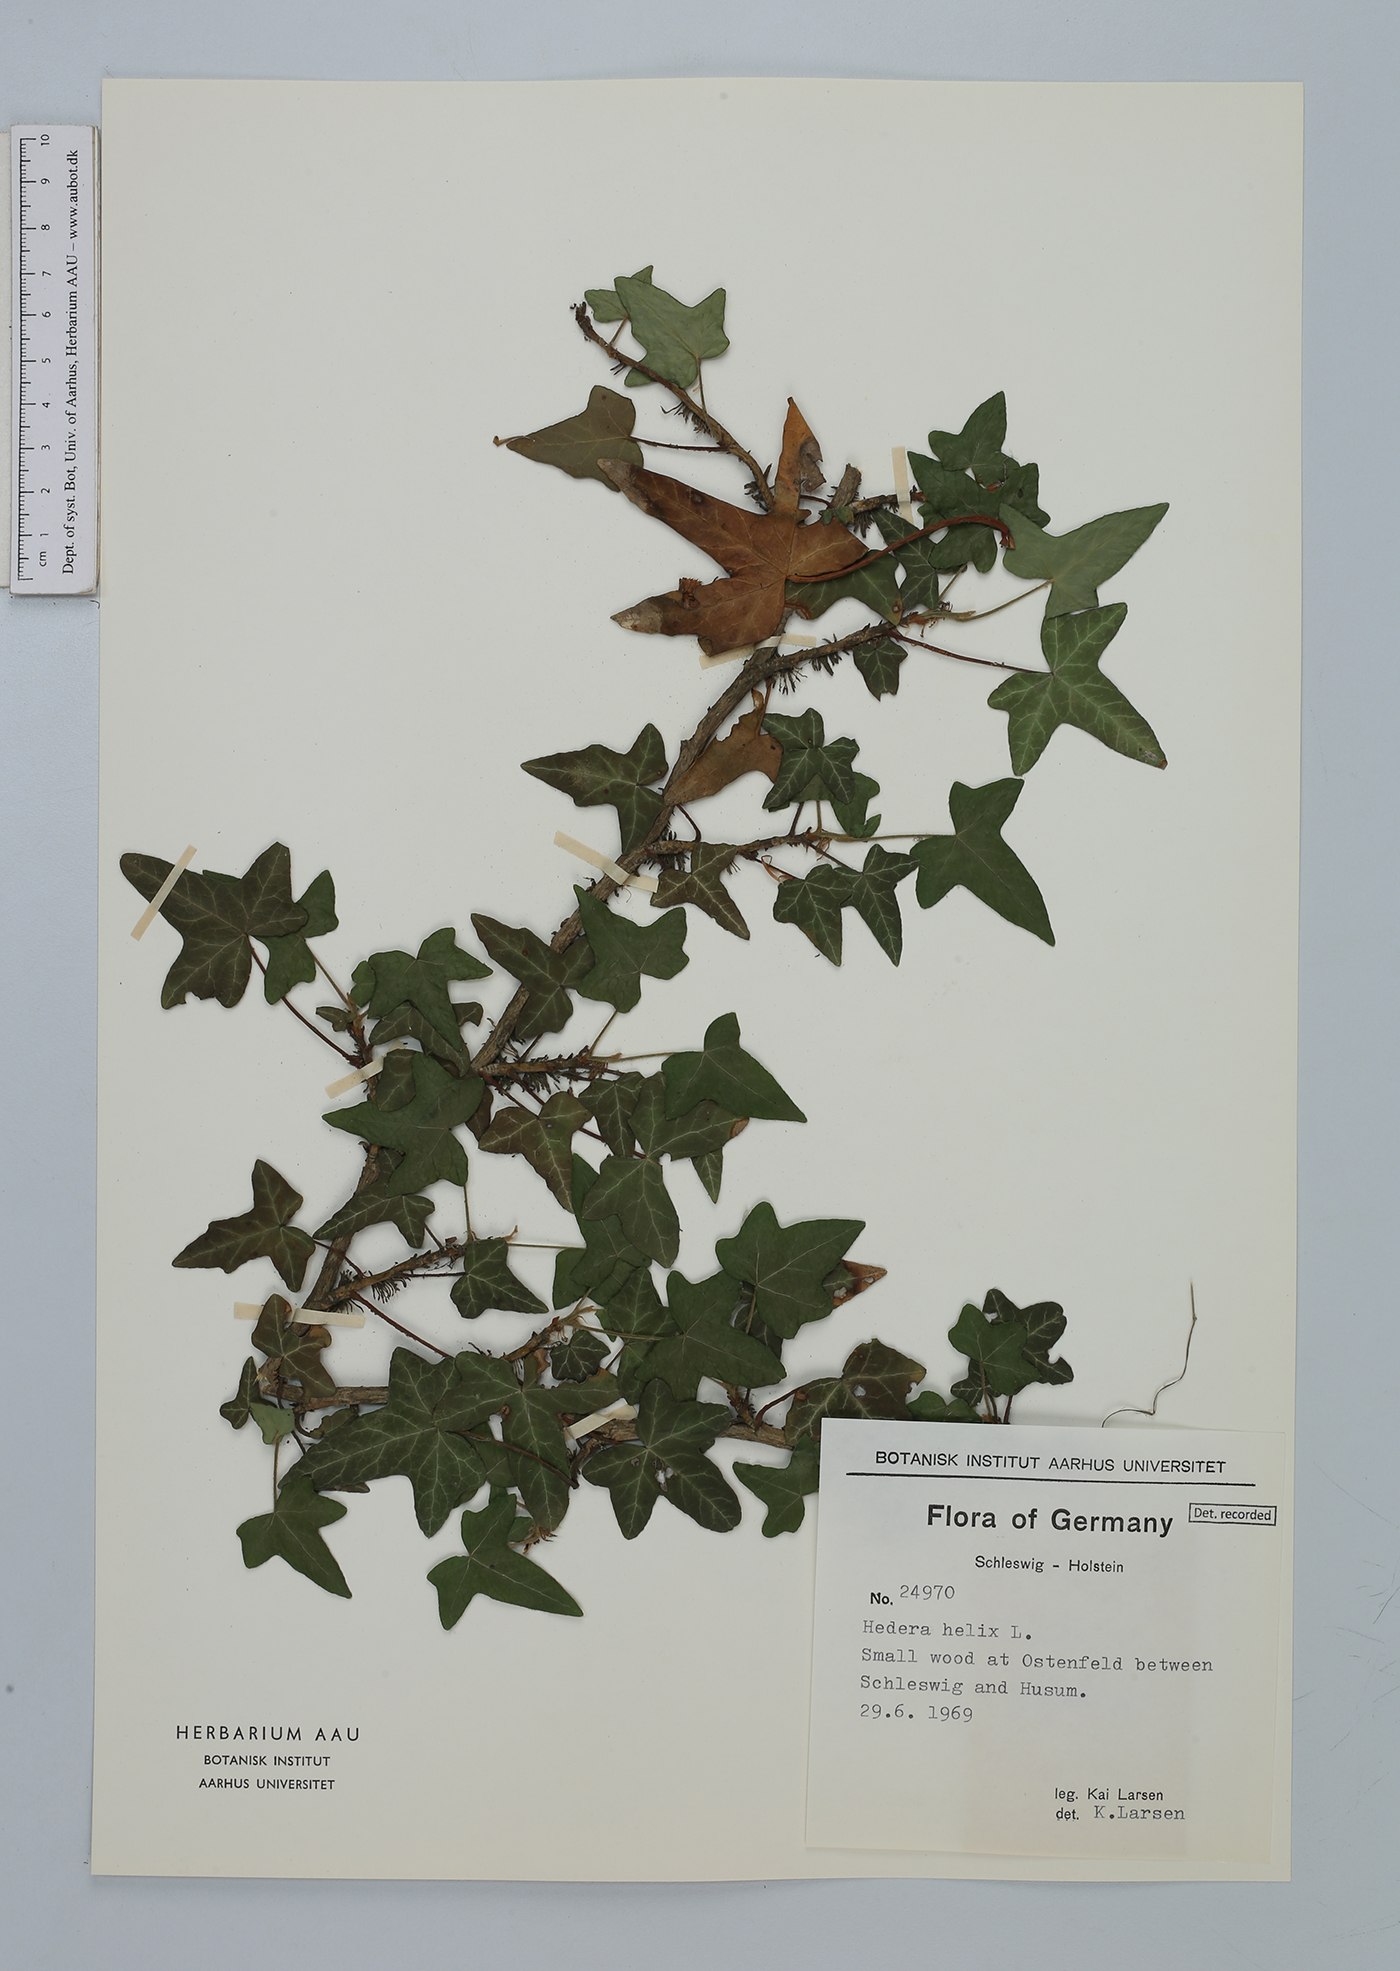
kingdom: Plantae
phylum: Tracheophyta
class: Magnoliopsida
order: Apiales
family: Araliaceae
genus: Hedera
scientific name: Hedera helix
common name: Ivy
